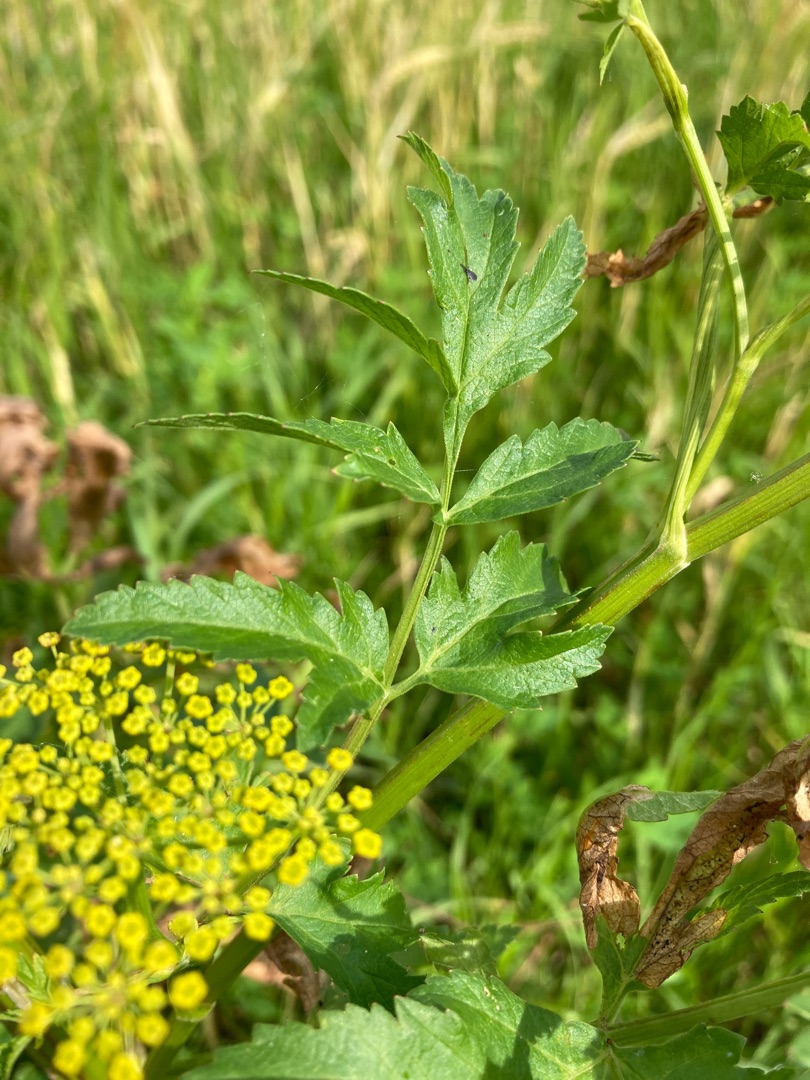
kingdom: Plantae
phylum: Tracheophyta
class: Magnoliopsida
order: Apiales
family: Apiaceae
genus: Pastinaca
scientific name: Pastinaca sativa
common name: Pastinak
